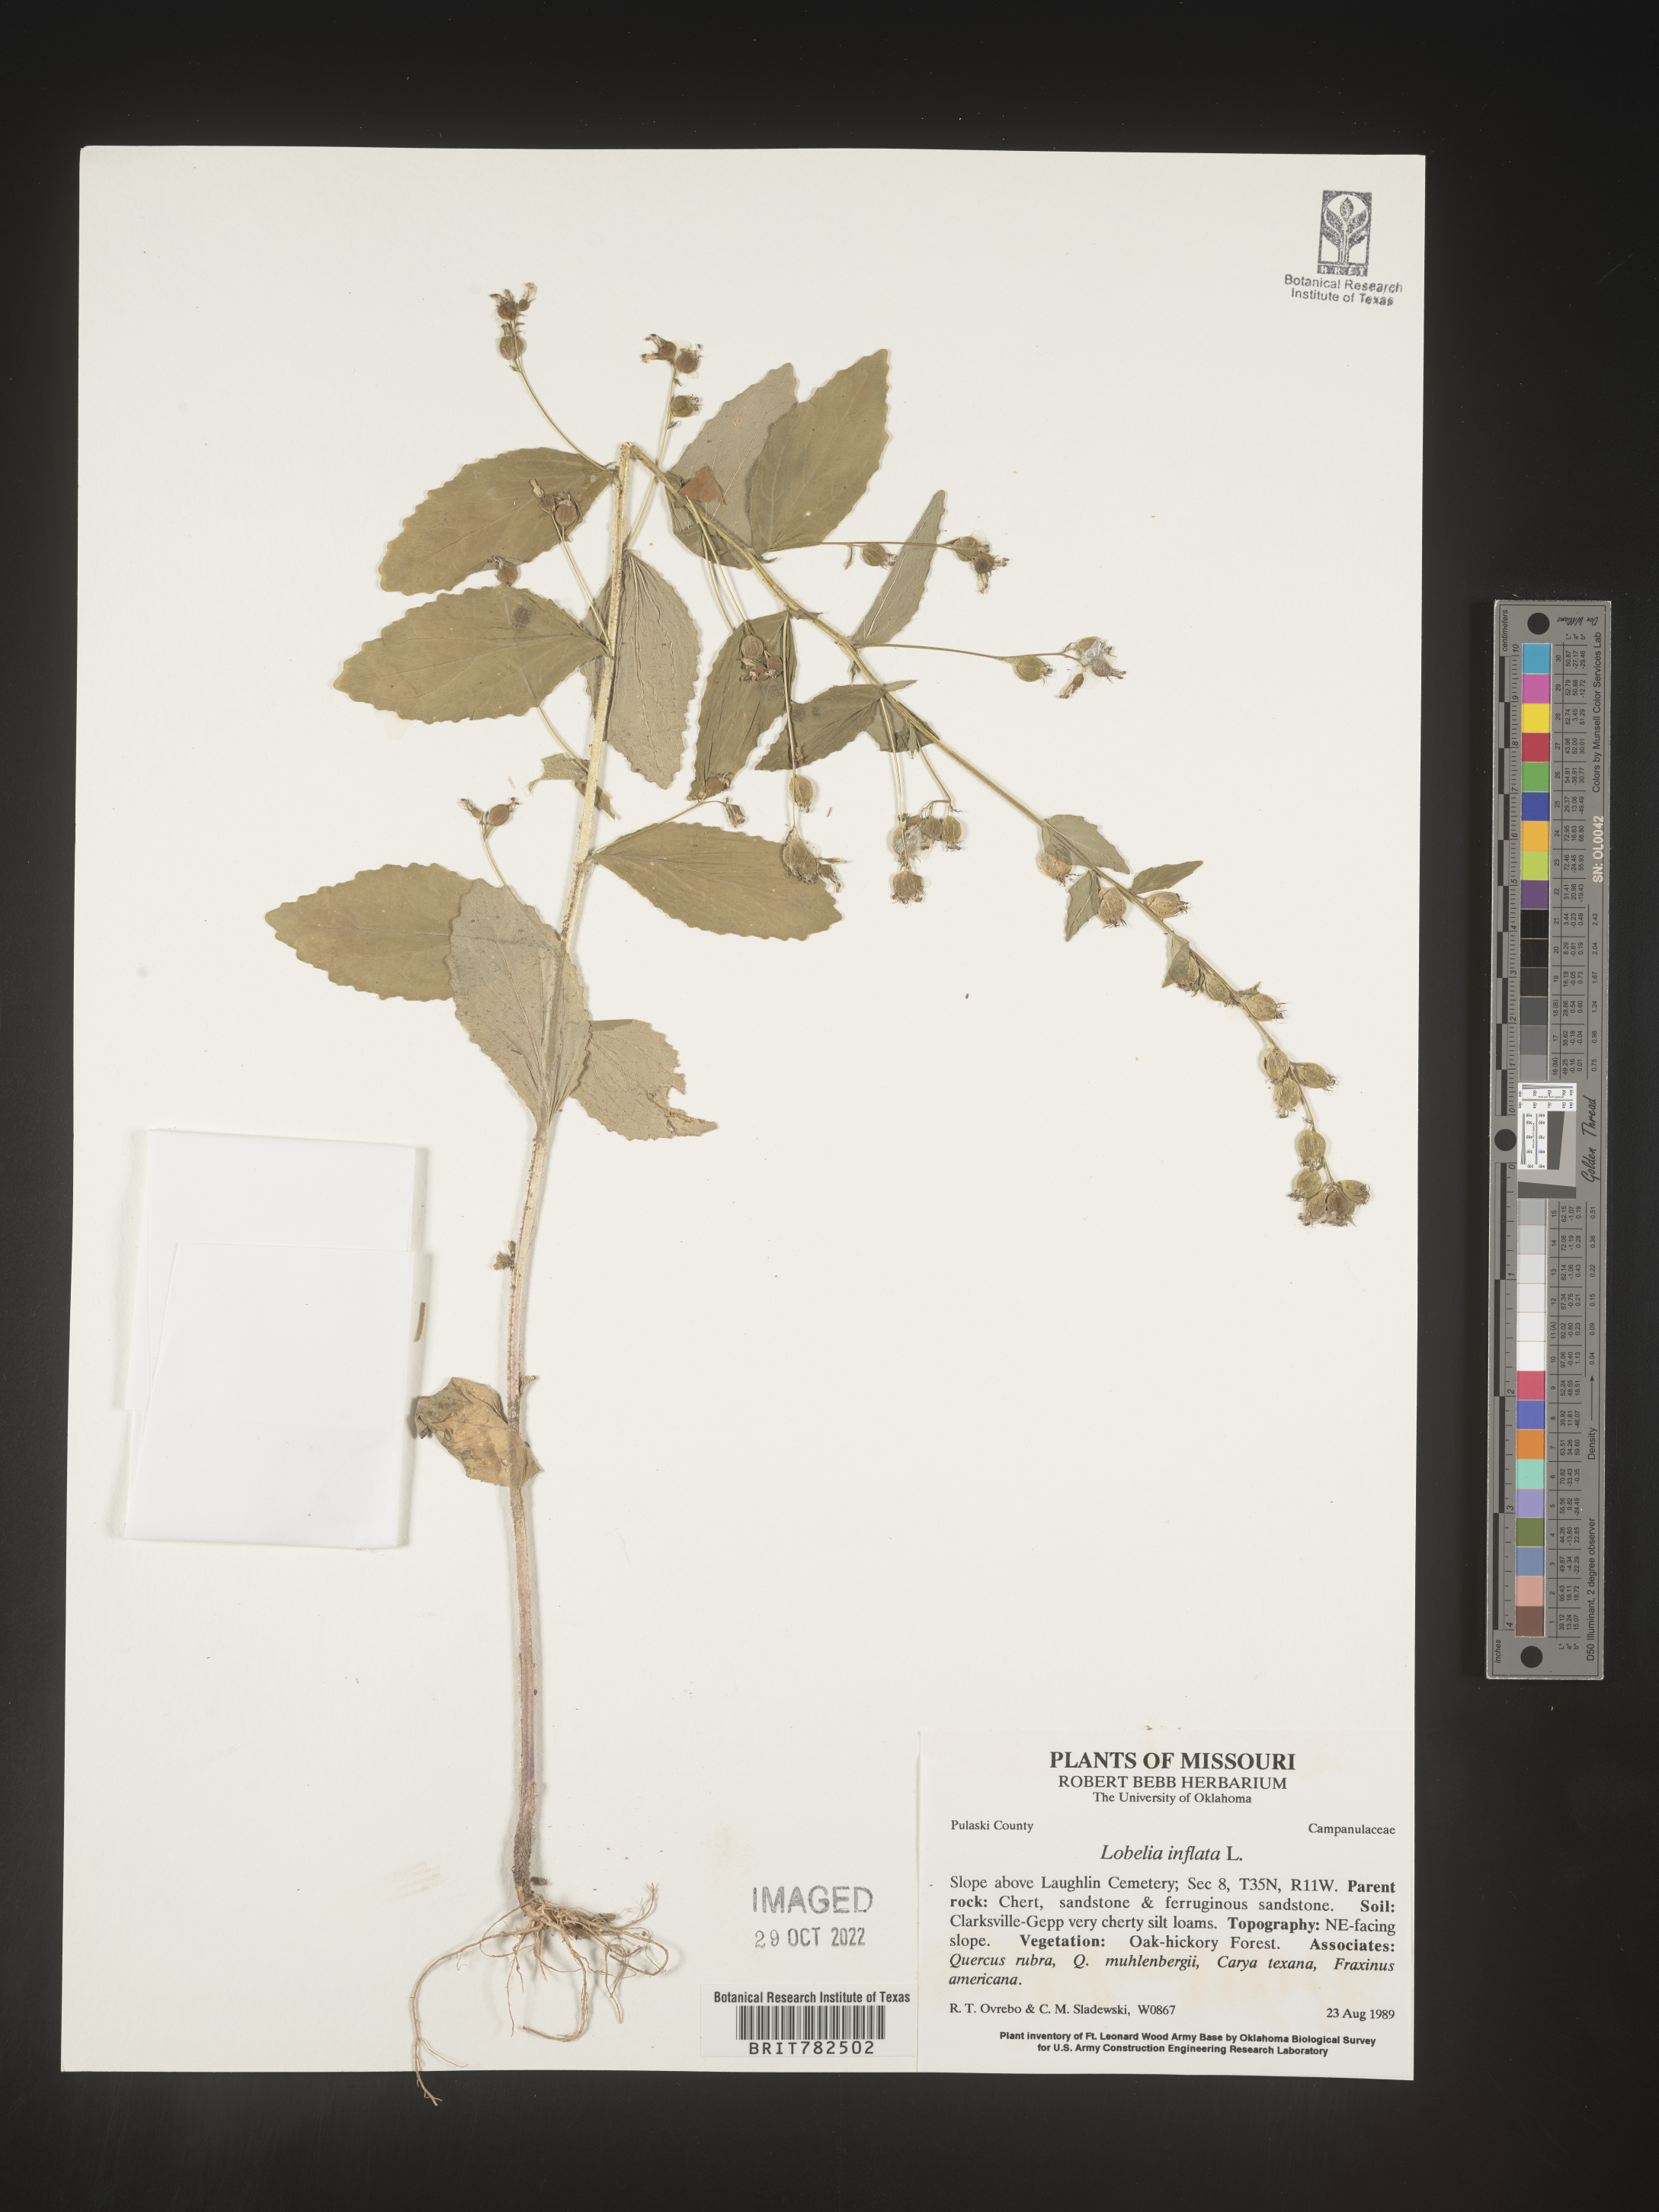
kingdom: Plantae
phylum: Tracheophyta
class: Magnoliopsida
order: Asterales
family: Campanulaceae
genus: Lobelia
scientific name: Lobelia inflata
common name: Indian tobacco
